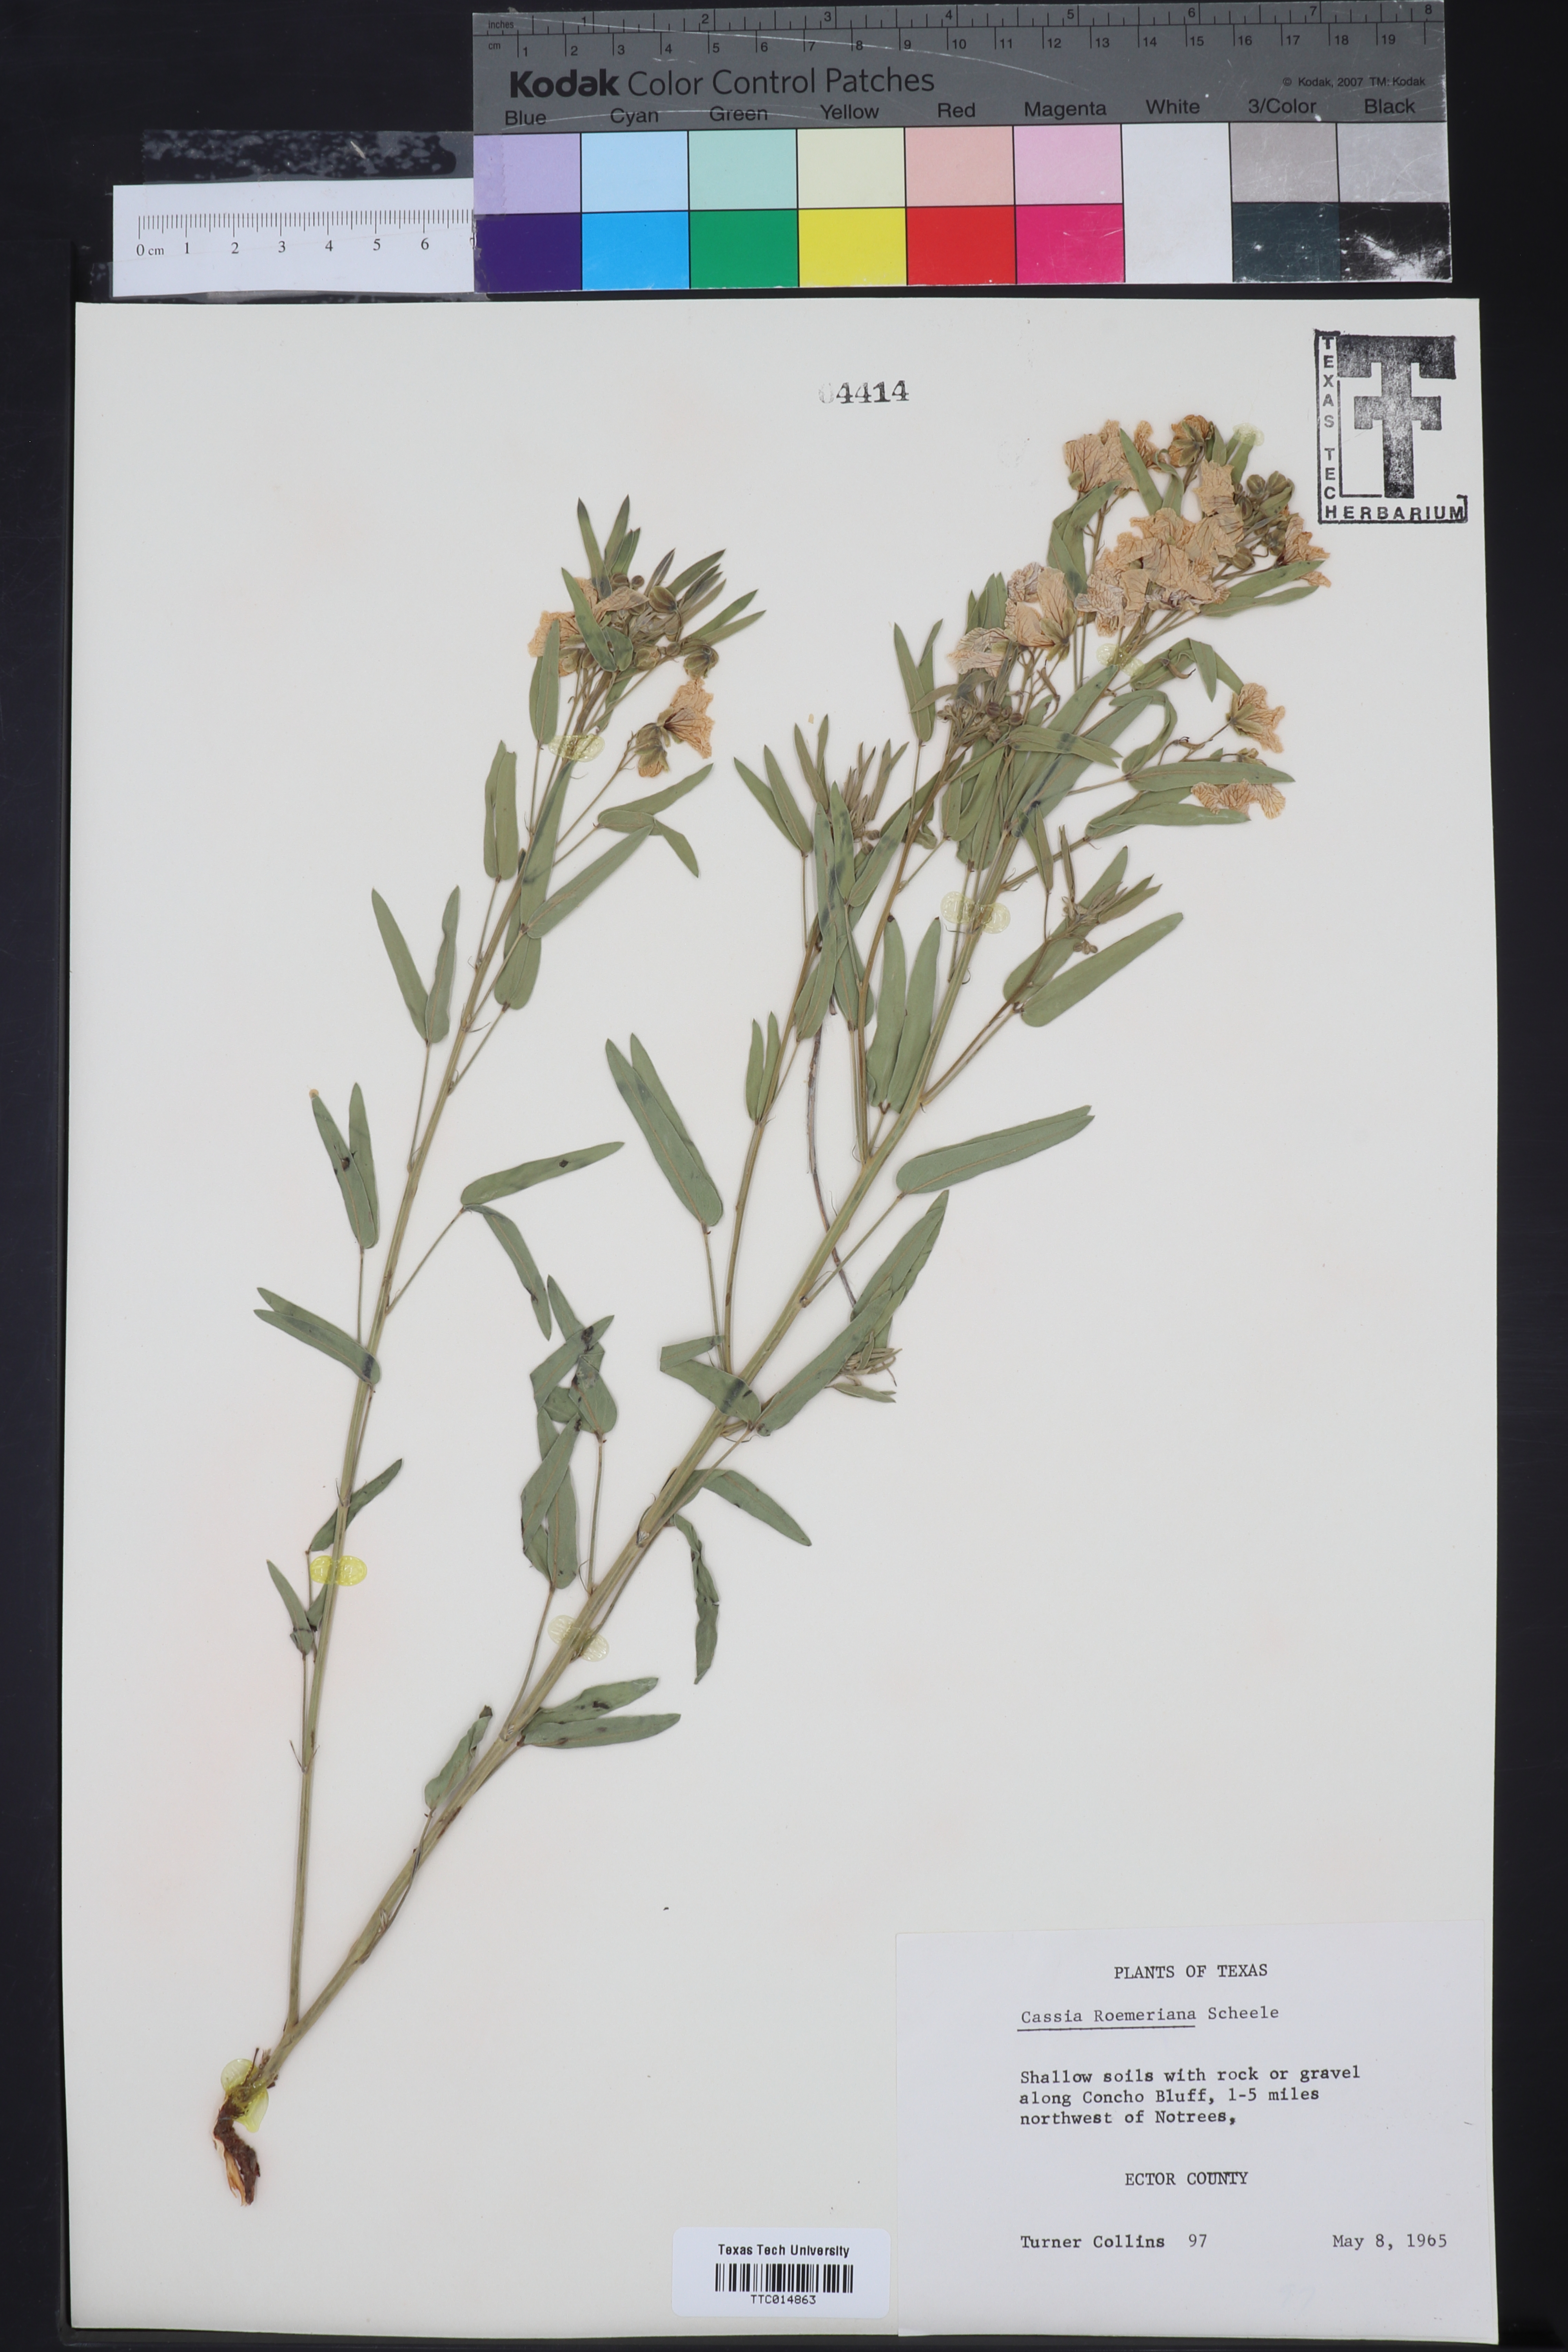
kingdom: Plantae
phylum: Tracheophyta
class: Magnoliopsida
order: Fabales
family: Fabaceae
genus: Senna
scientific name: Senna roemeriana
